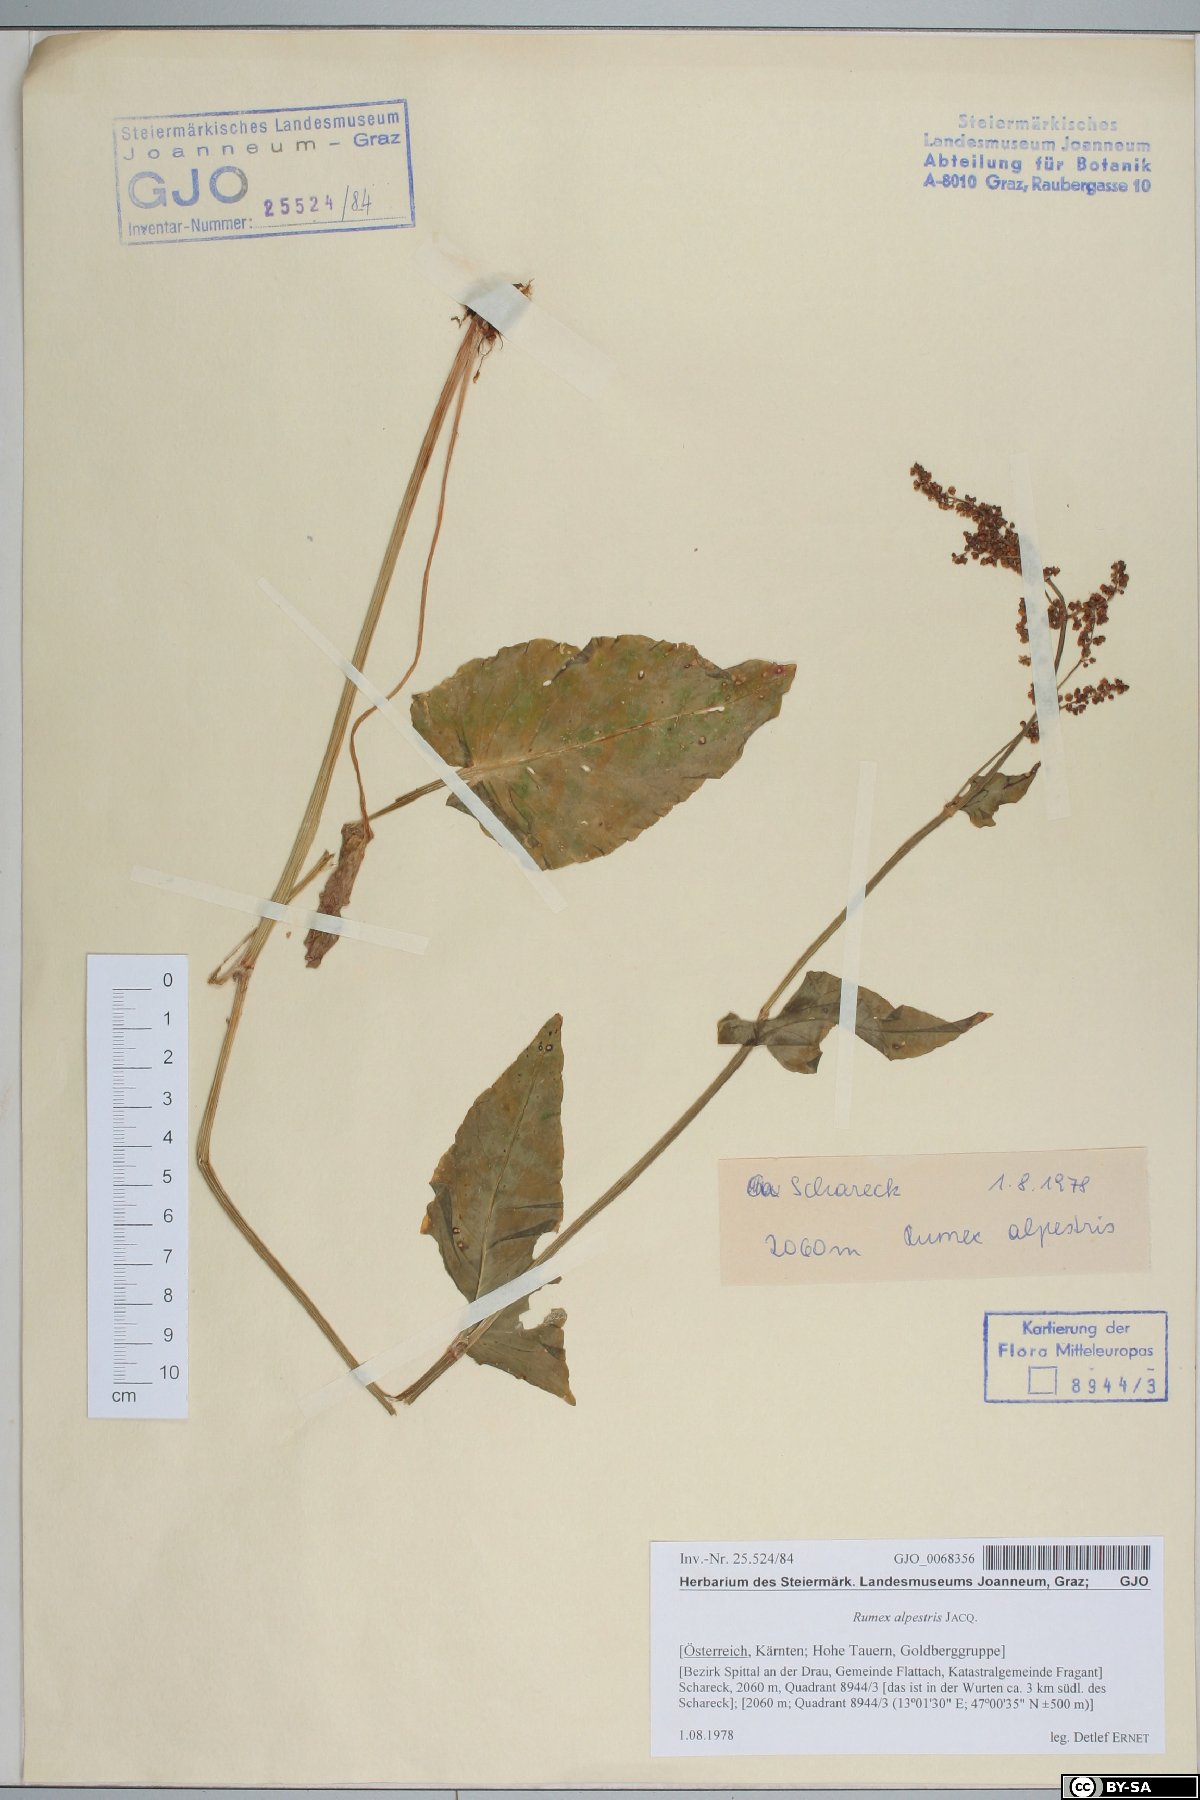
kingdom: Plantae
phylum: Tracheophyta
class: Magnoliopsida
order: Caryophyllales
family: Polygonaceae
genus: Rumex
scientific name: Rumex scutatus
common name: French sorrel
